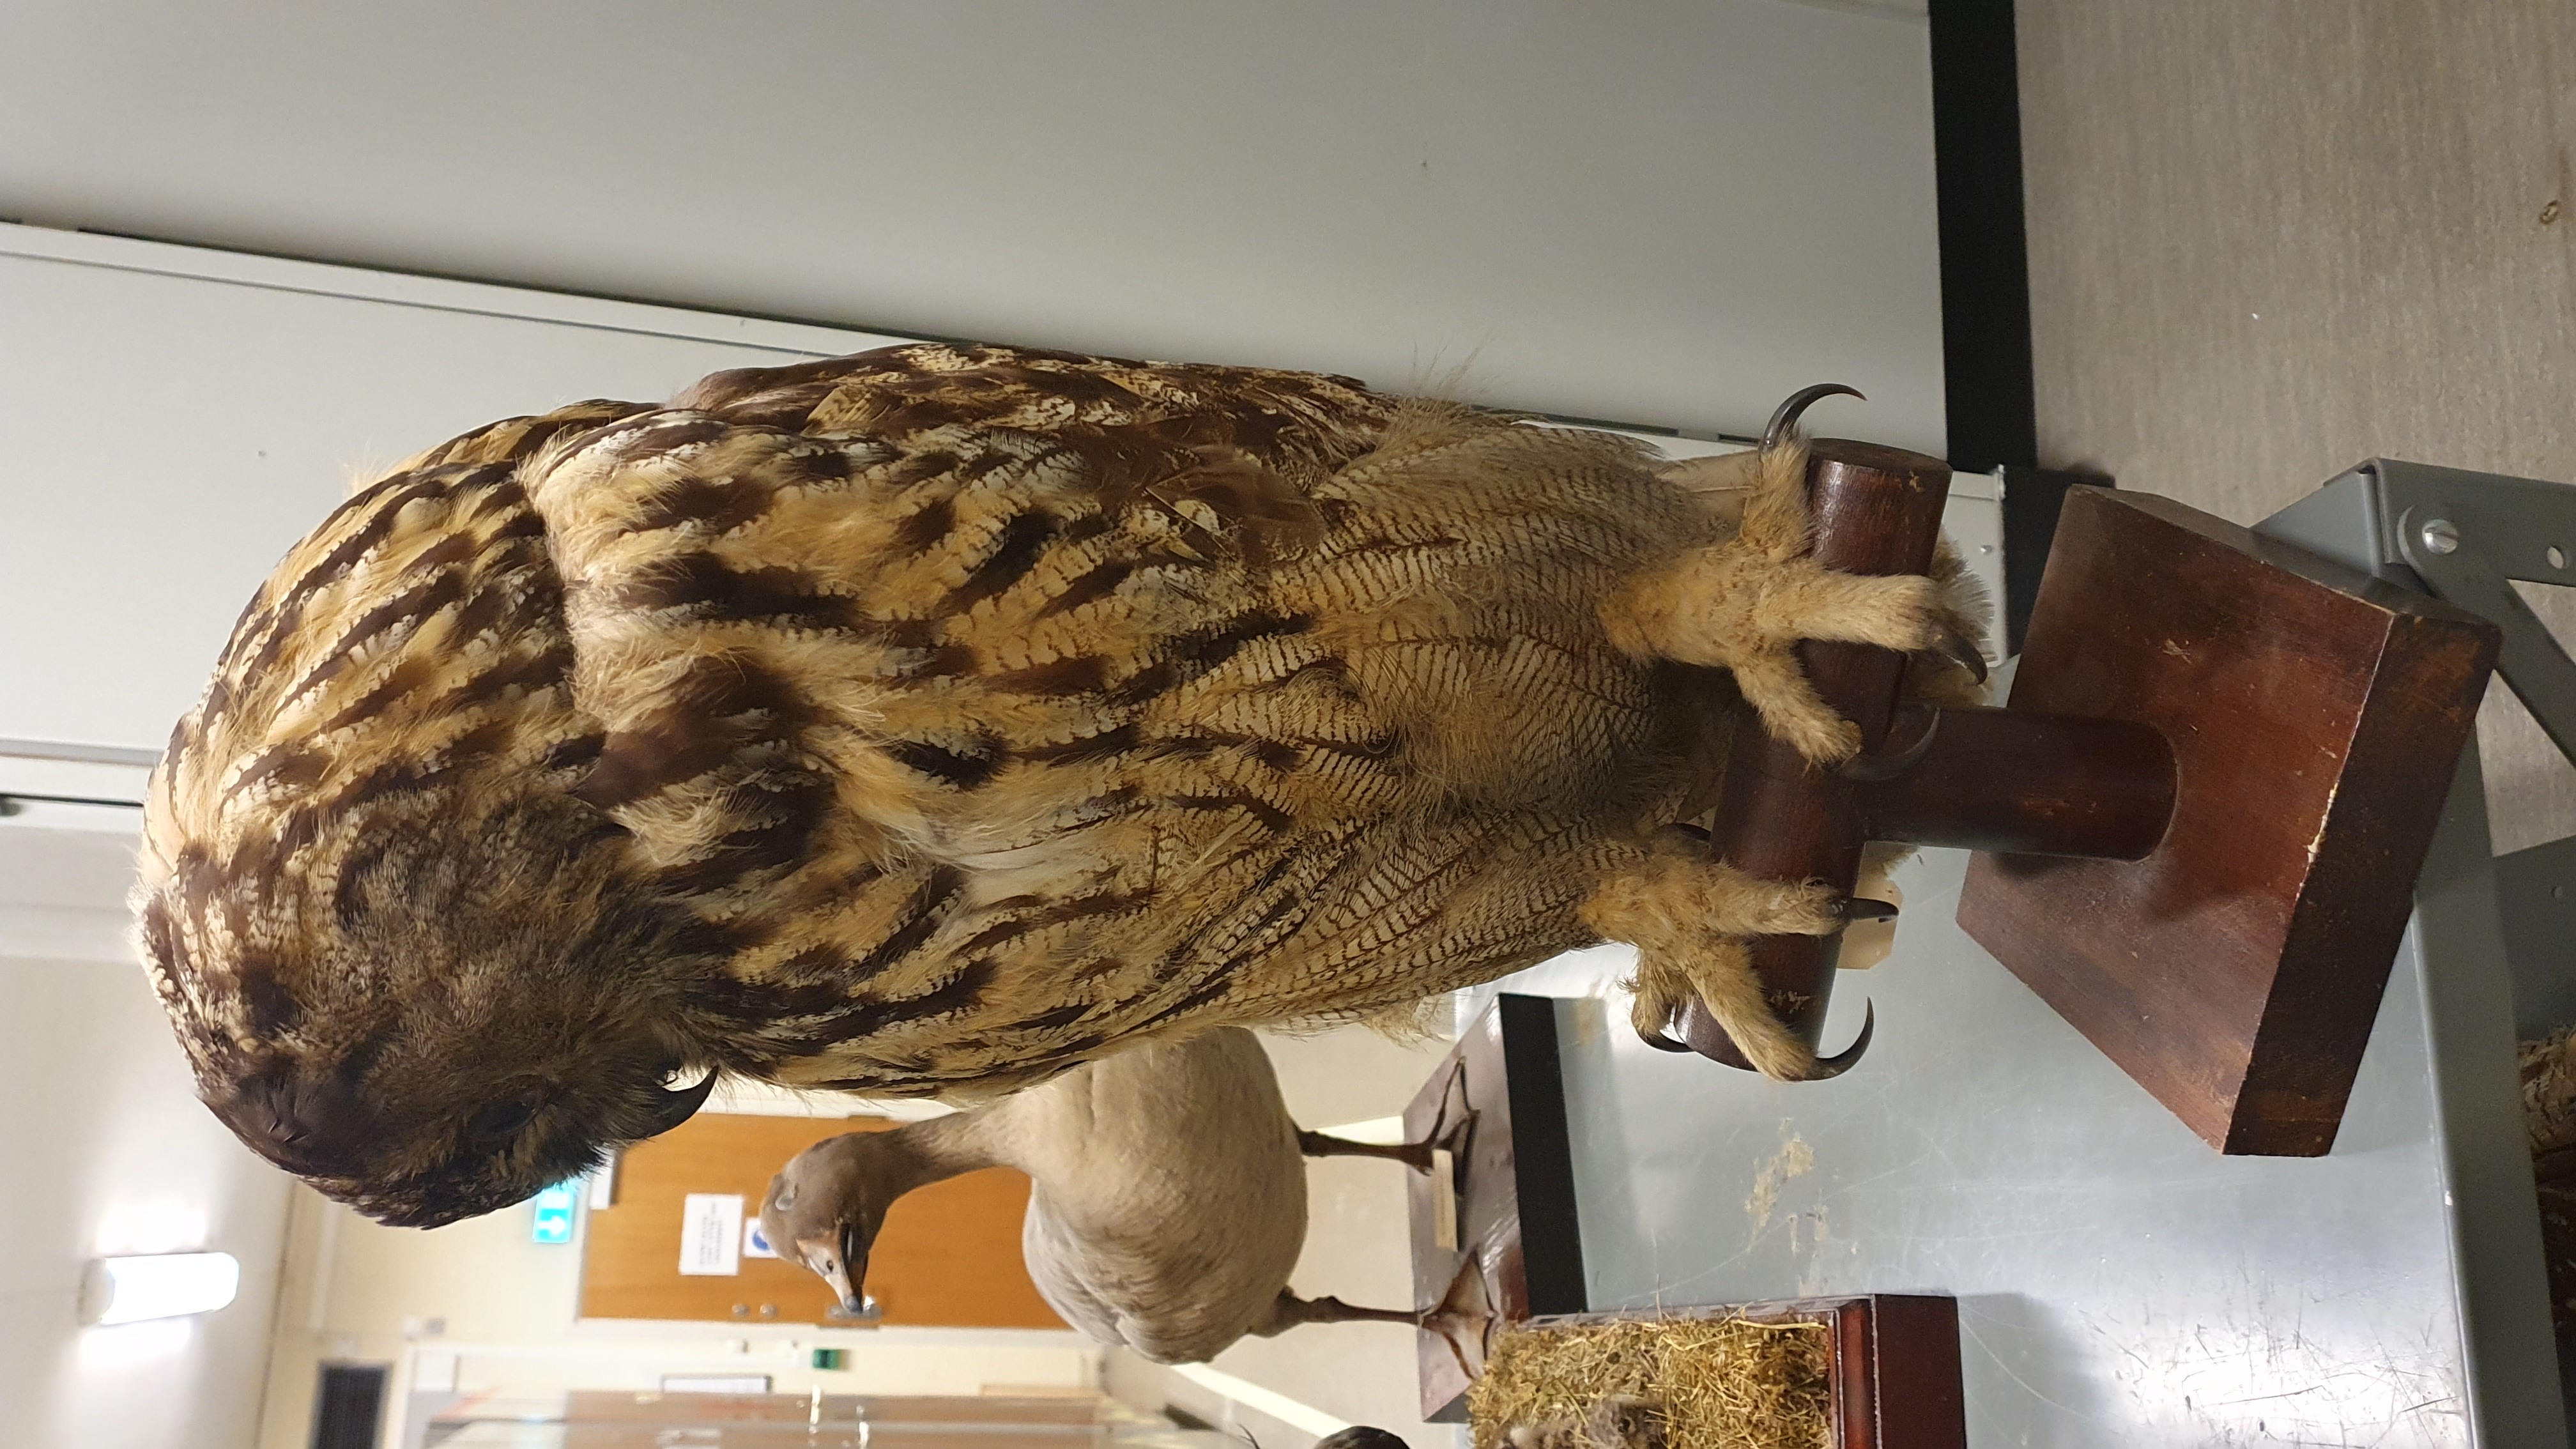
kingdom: Animalia
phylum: Chordata
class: Aves
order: Strigiformes
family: Strigidae
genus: Bubo
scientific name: Bubo bubo
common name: Eurasian eagle-owl
